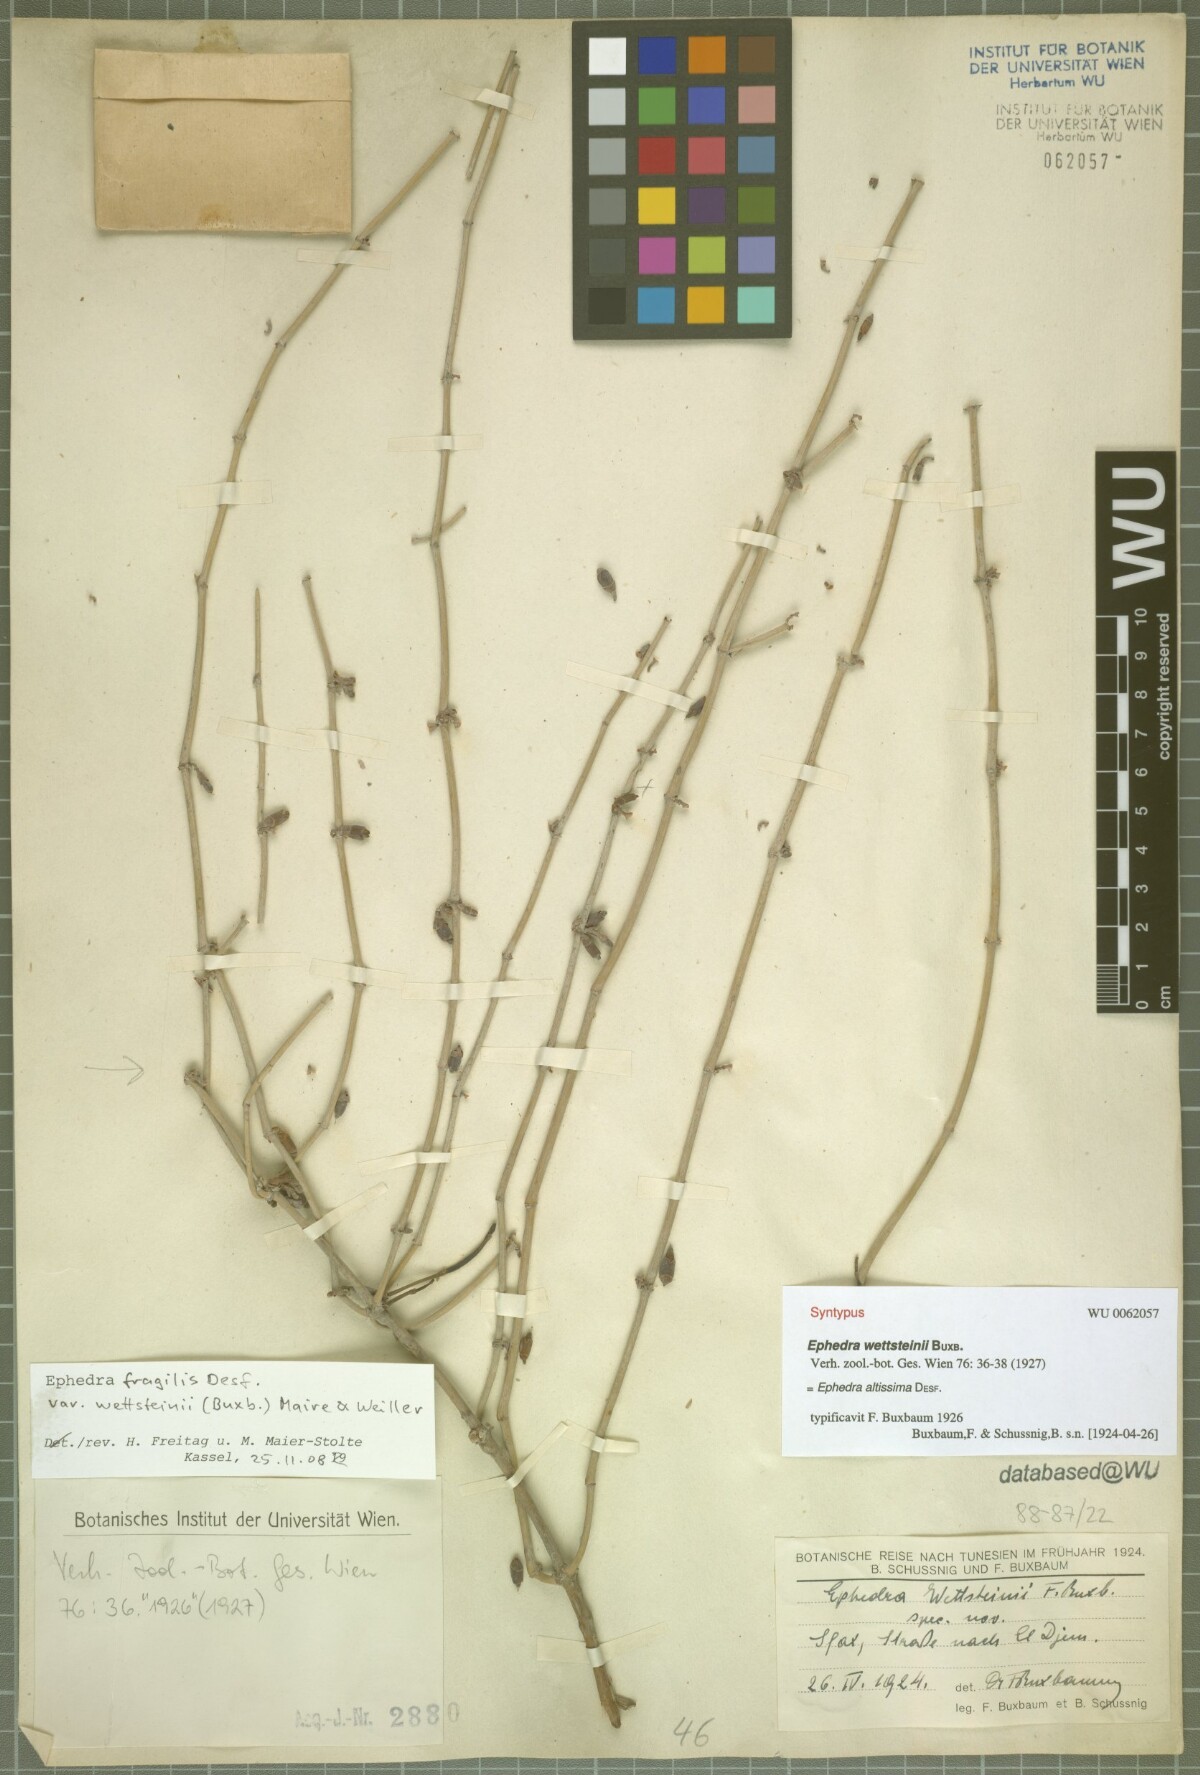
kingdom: Plantae
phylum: Tracheophyta
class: Gnetopsida
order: Ephedrales
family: Ephedraceae
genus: Ephedra
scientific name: Ephedra fragilis
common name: Joint pine
